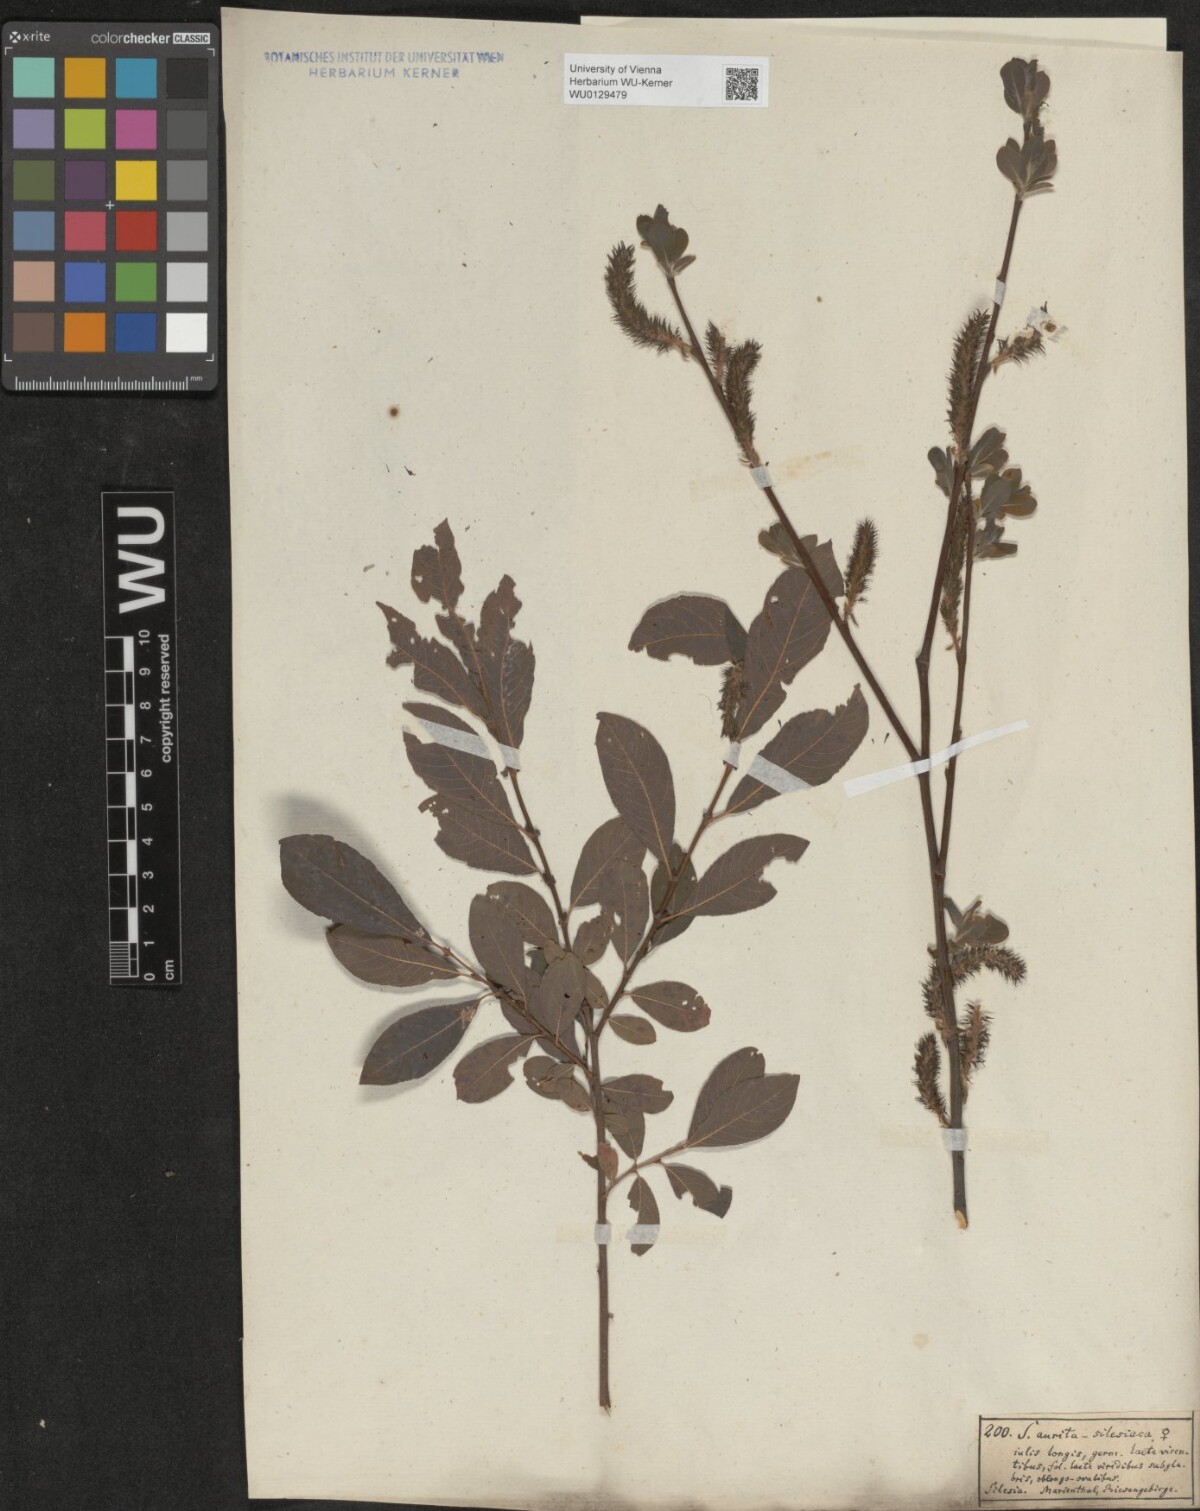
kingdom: Plantae
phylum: Tracheophyta
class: Magnoliopsida
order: Malpighiales
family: Salicaceae
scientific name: Salicaceae
